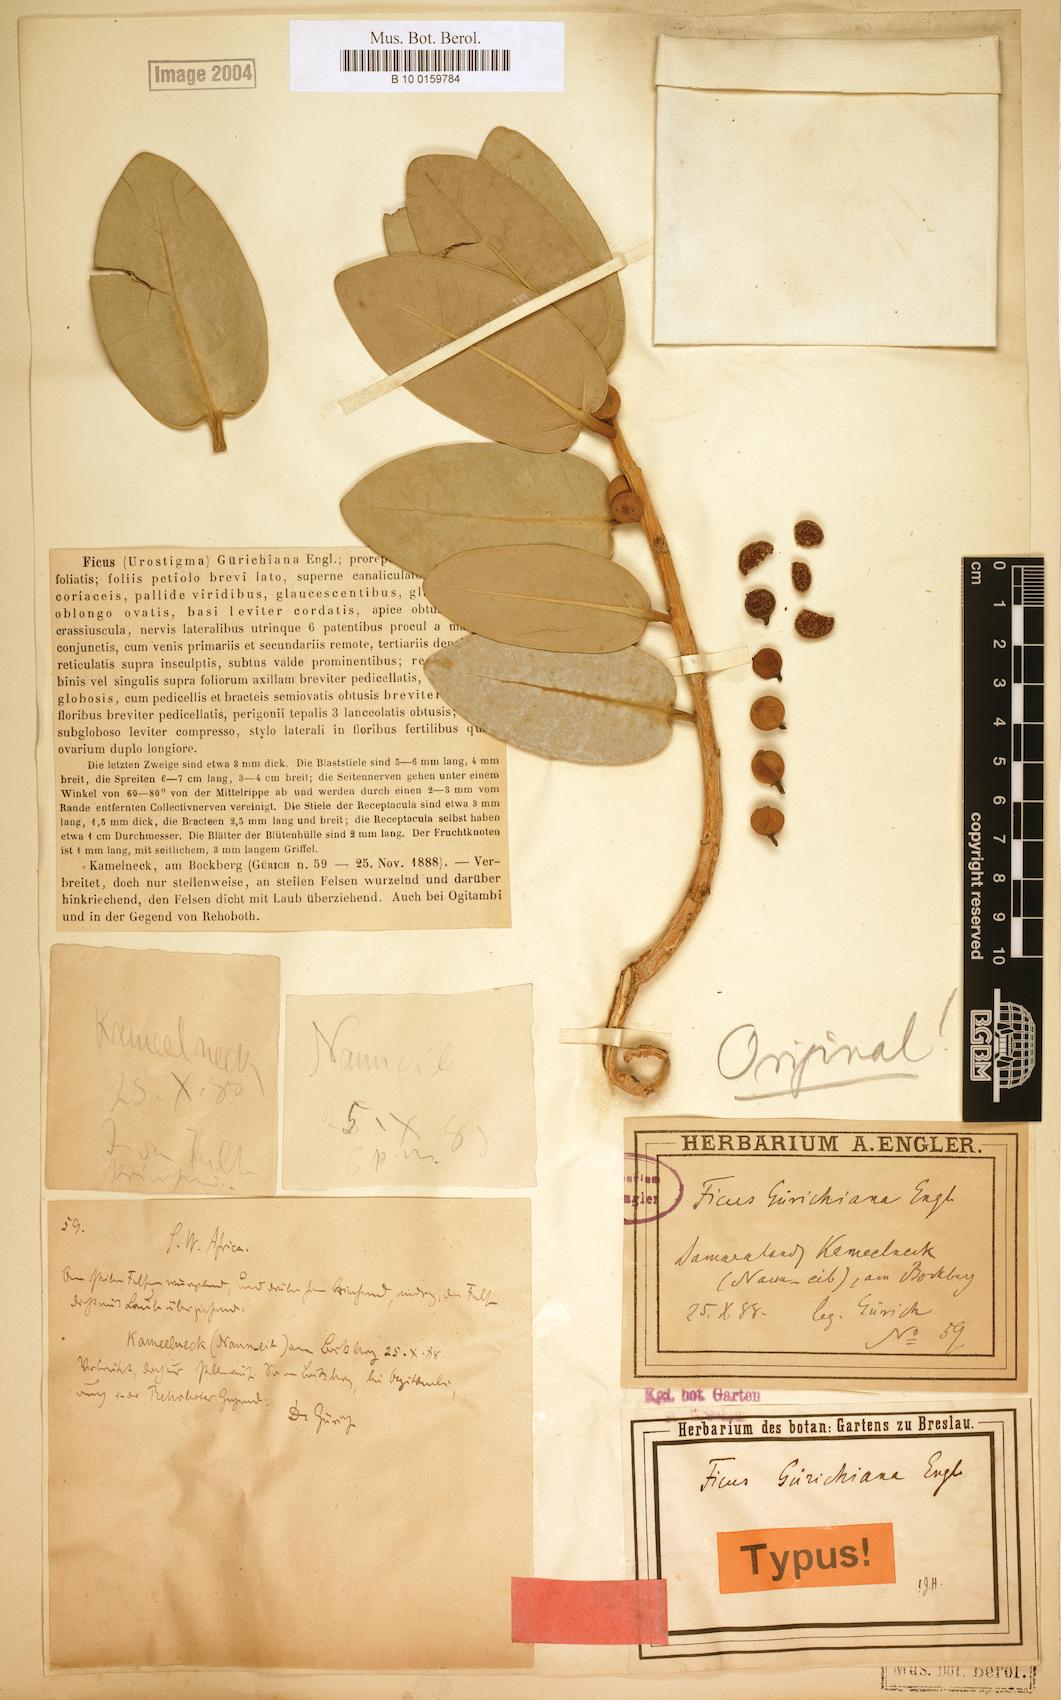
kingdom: Plantae
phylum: Tracheophyta
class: Magnoliopsida
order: Rosales
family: Moraceae
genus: Ficus
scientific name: Ficus ilicina
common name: Laurel rock fig
